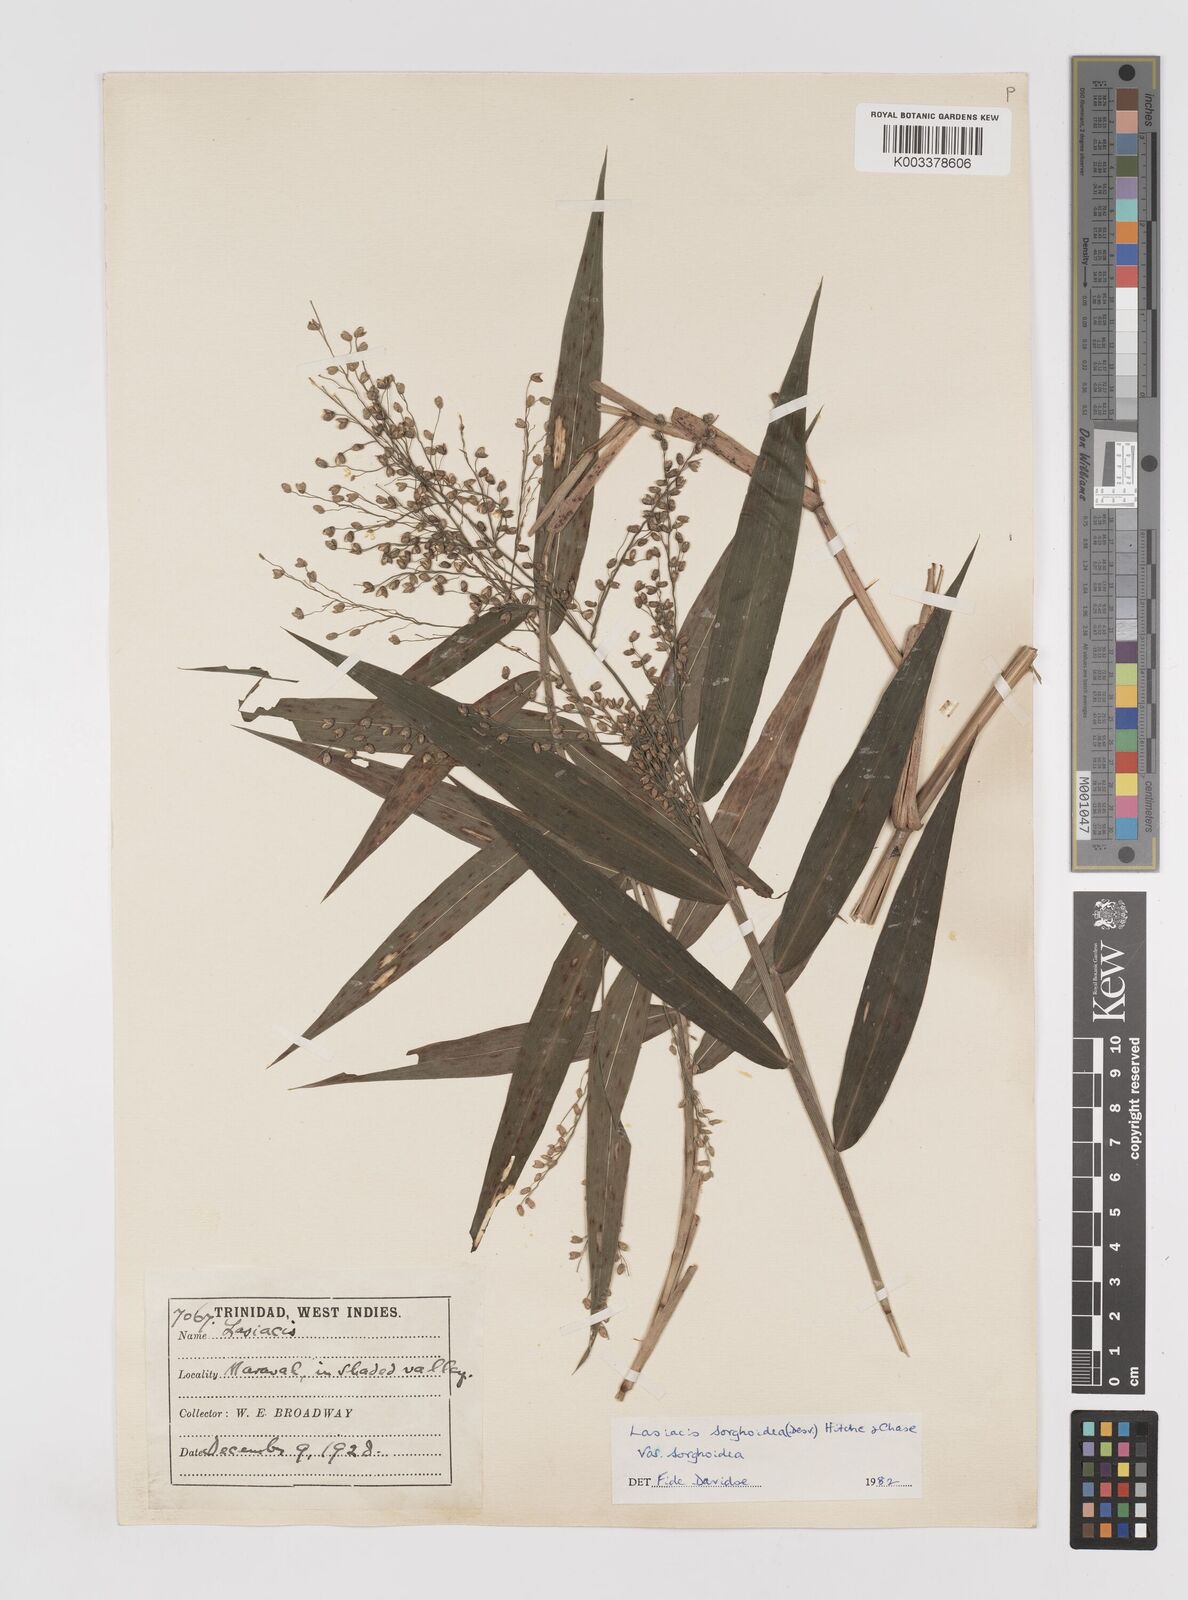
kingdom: Plantae
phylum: Tracheophyta
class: Liliopsida
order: Poales
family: Poaceae
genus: Lasiacis
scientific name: Lasiacis maculata
